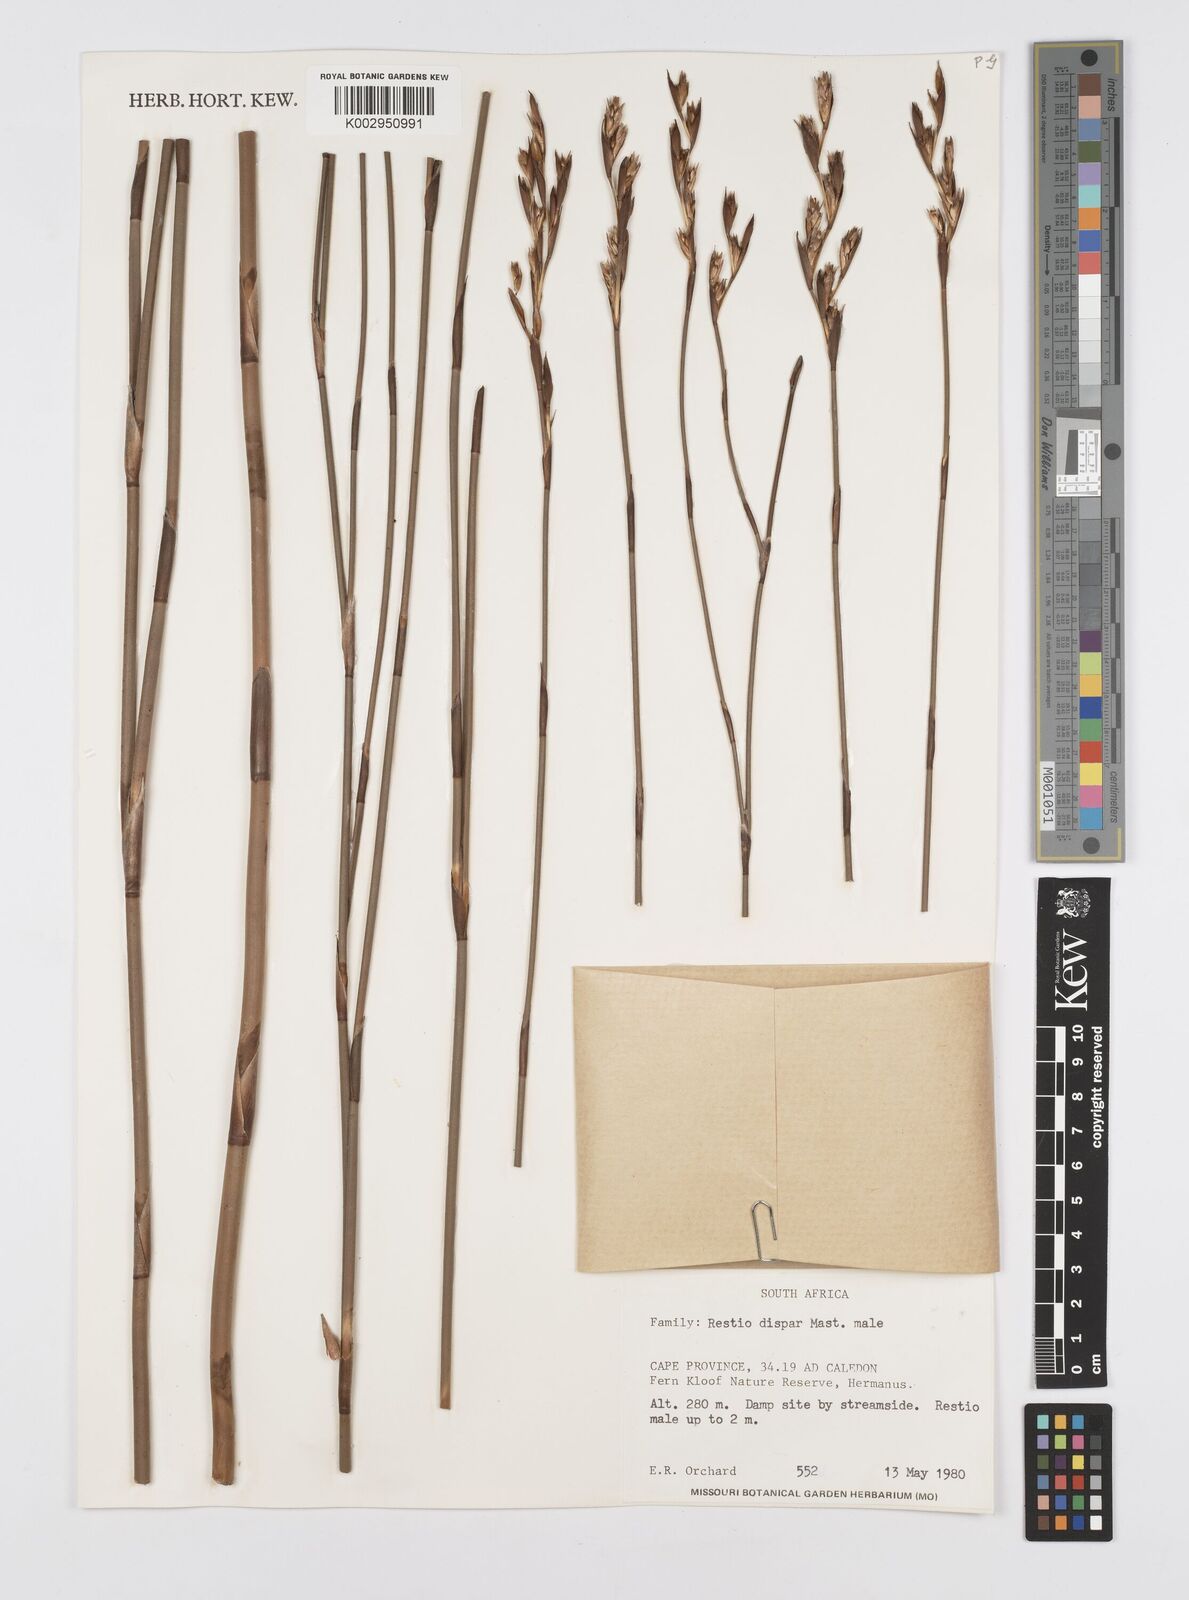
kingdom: Plantae
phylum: Tracheophyta
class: Liliopsida
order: Poales
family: Restionaceae
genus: Restio
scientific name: Restio egregius
